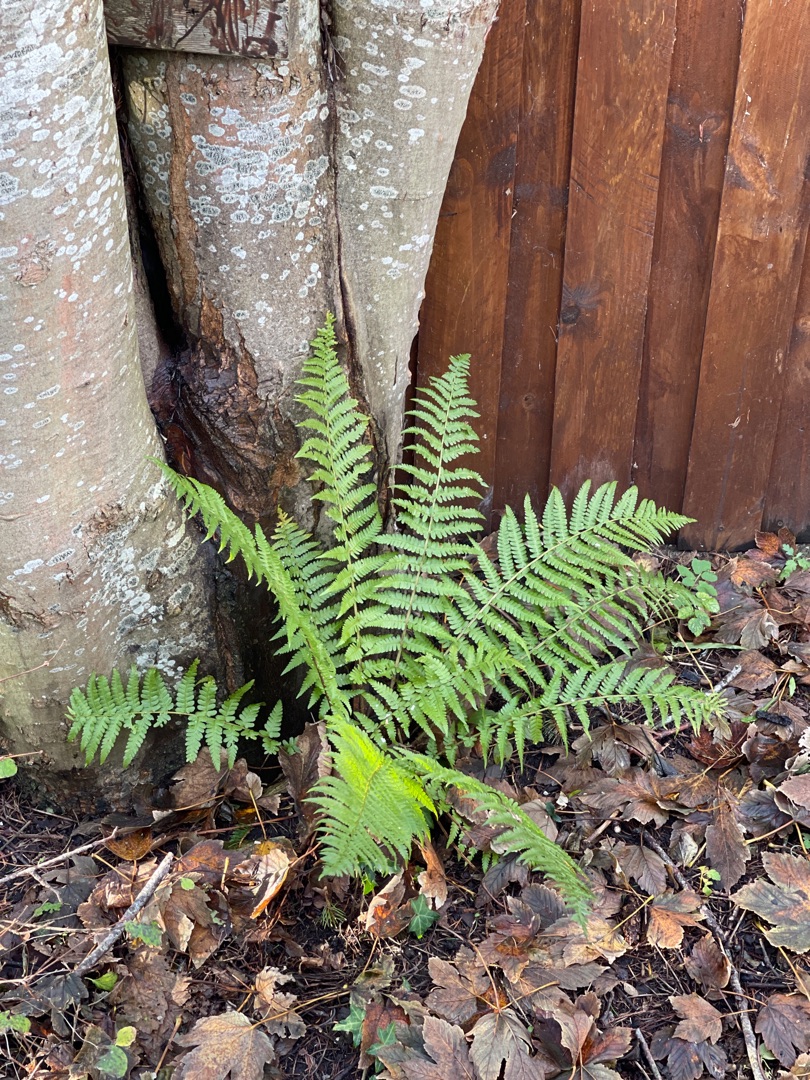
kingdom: Plantae
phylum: Tracheophyta
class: Polypodiopsida
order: Polypodiales
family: Dryopteridaceae
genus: Dryopteris
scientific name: Dryopteris filix-mas
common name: Almindelig mangeløv
